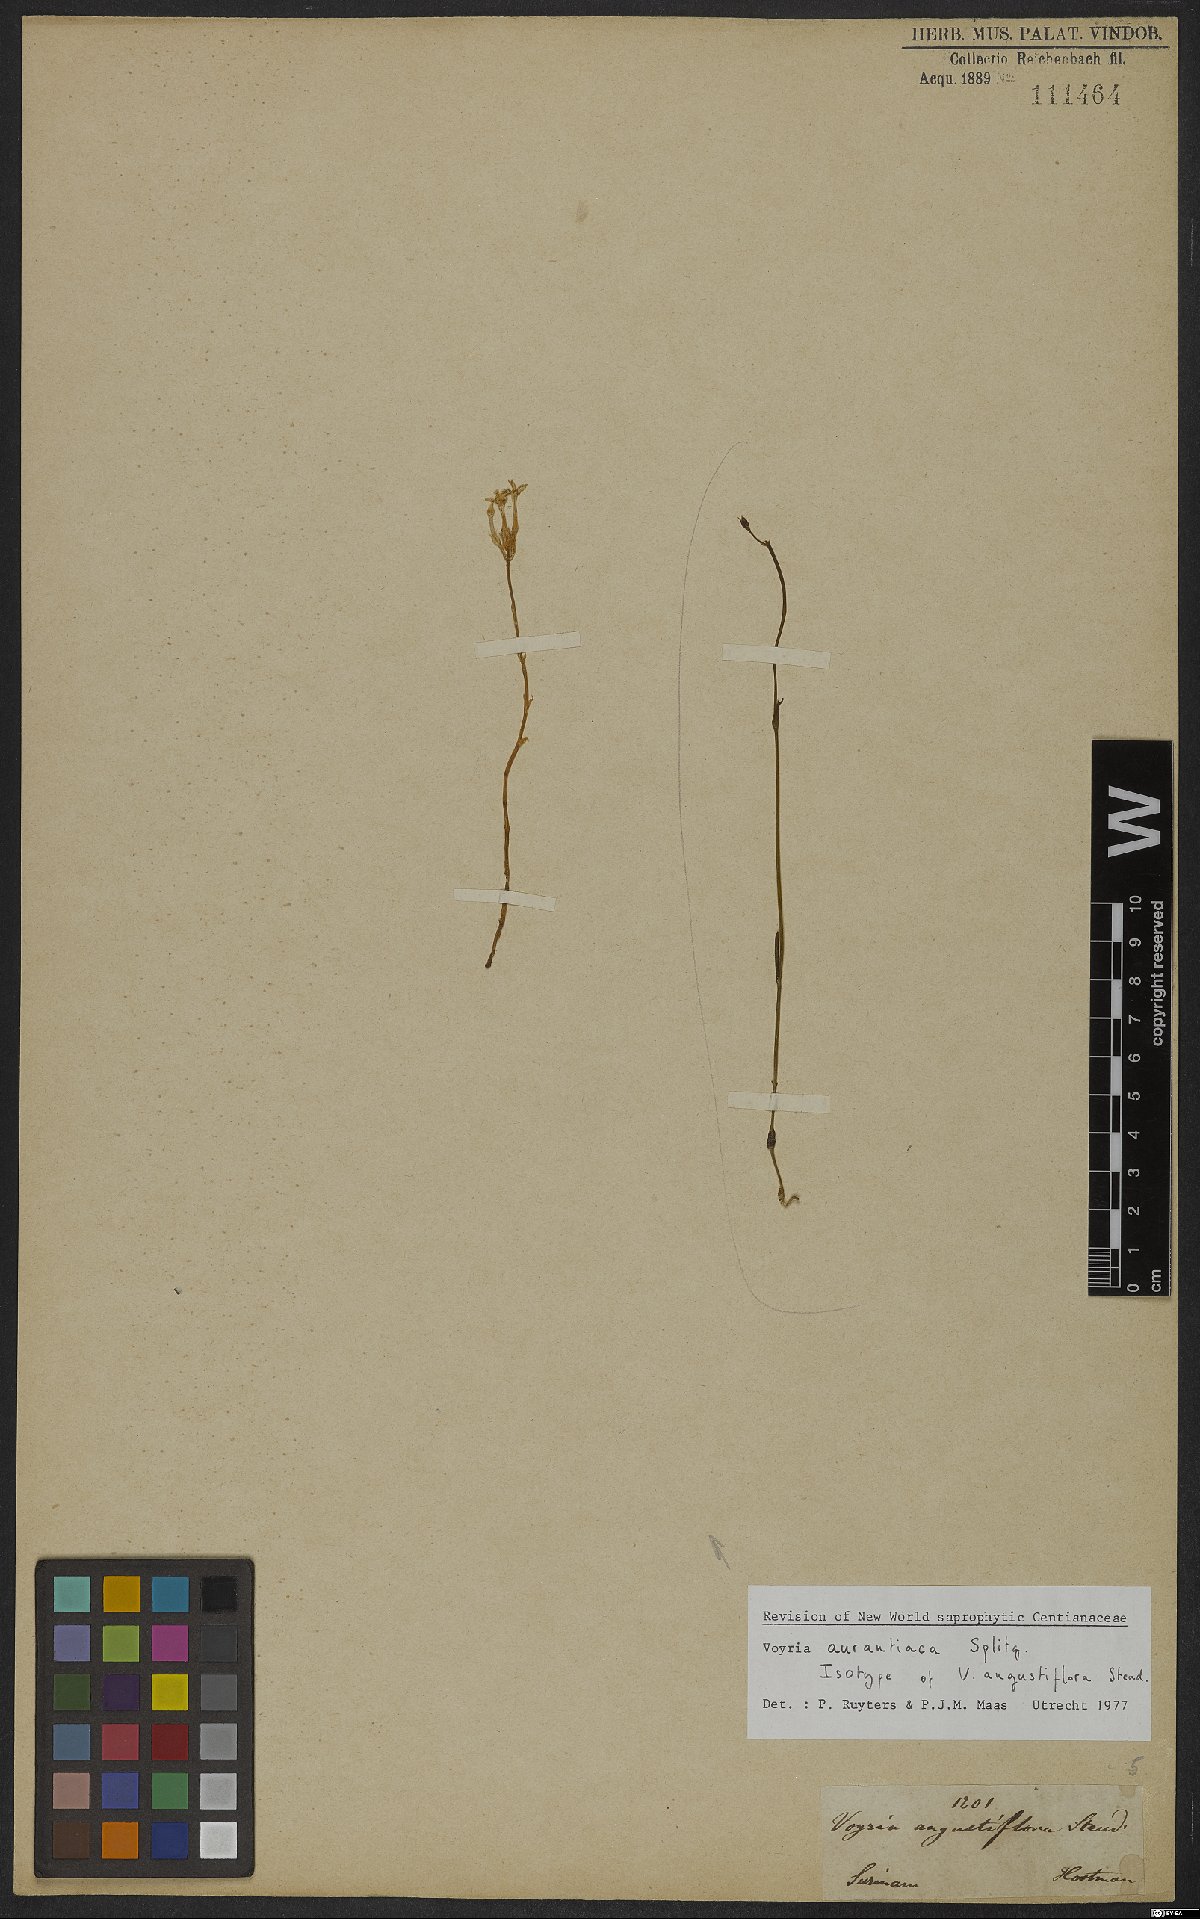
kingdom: Plantae
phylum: Tracheophyta
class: Magnoliopsida
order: Gentianales
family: Gentianaceae
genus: Voyria
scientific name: Voyria aurantiaca
